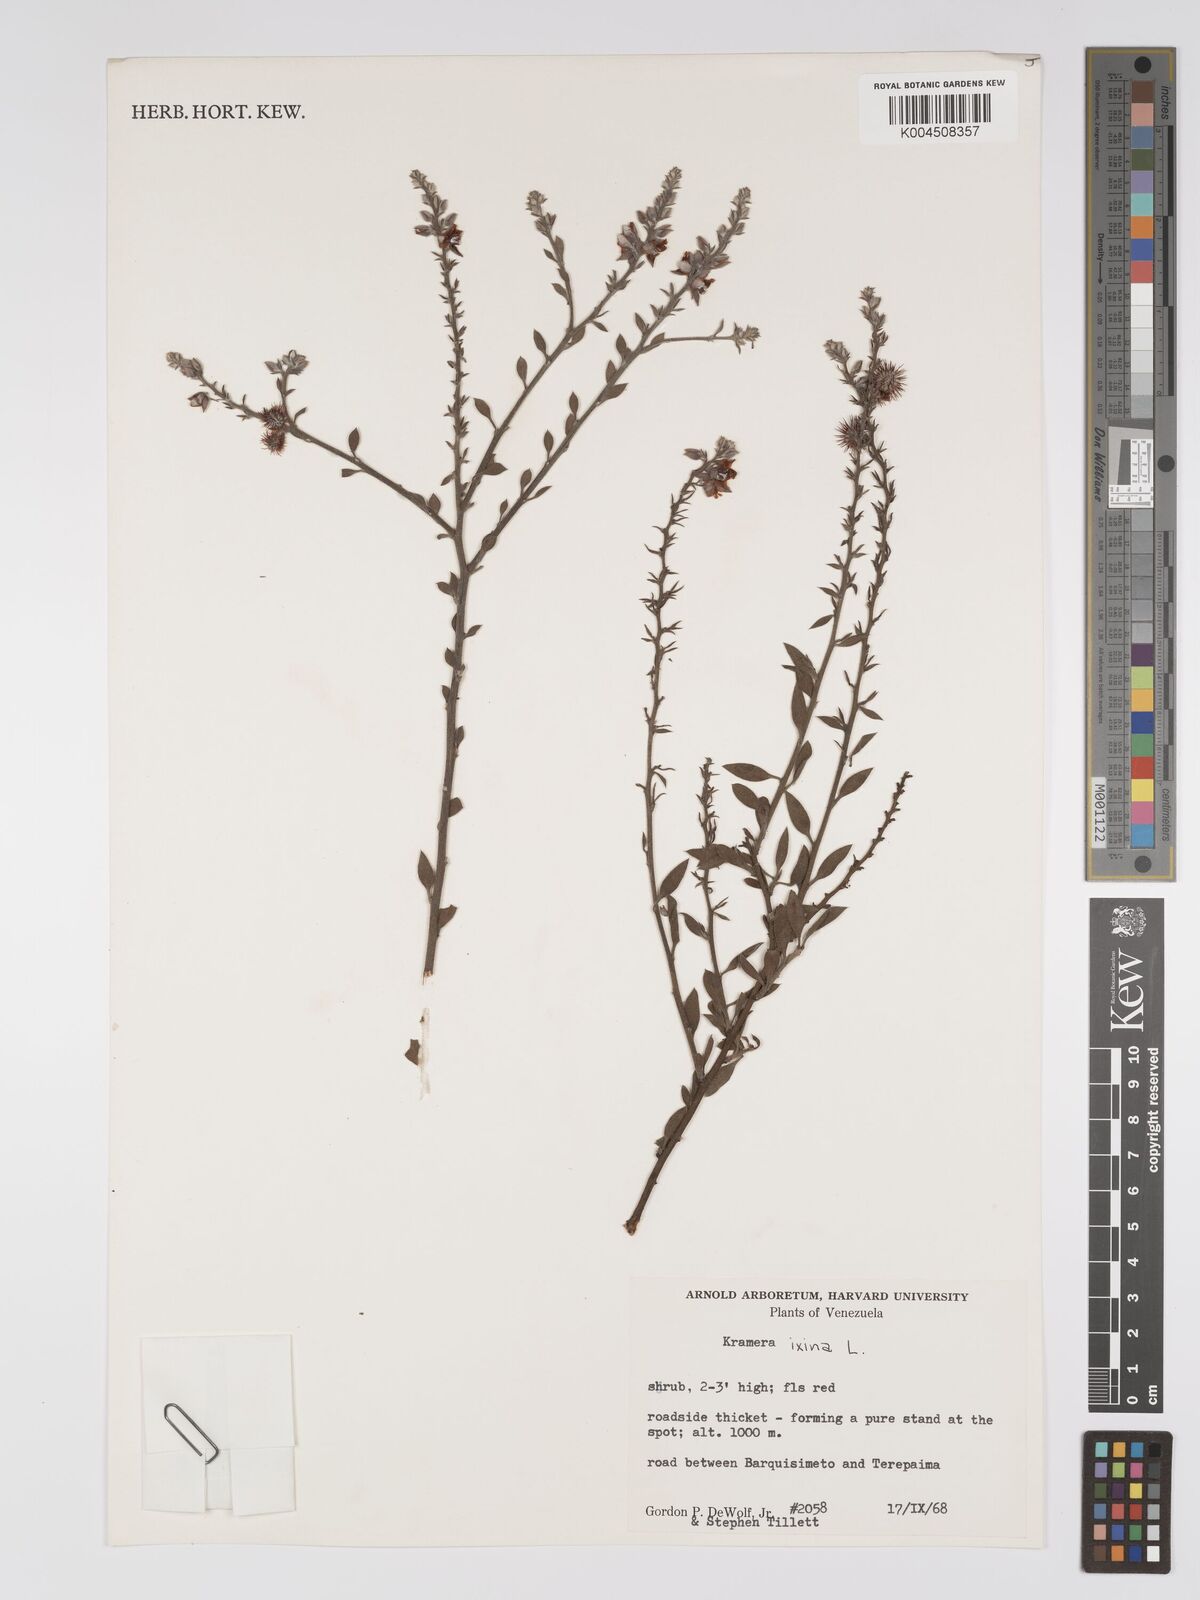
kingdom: Plantae
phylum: Tracheophyta
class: Magnoliopsida
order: Zygophyllales
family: Krameriaceae
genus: Krameria
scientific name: Krameria ixine
